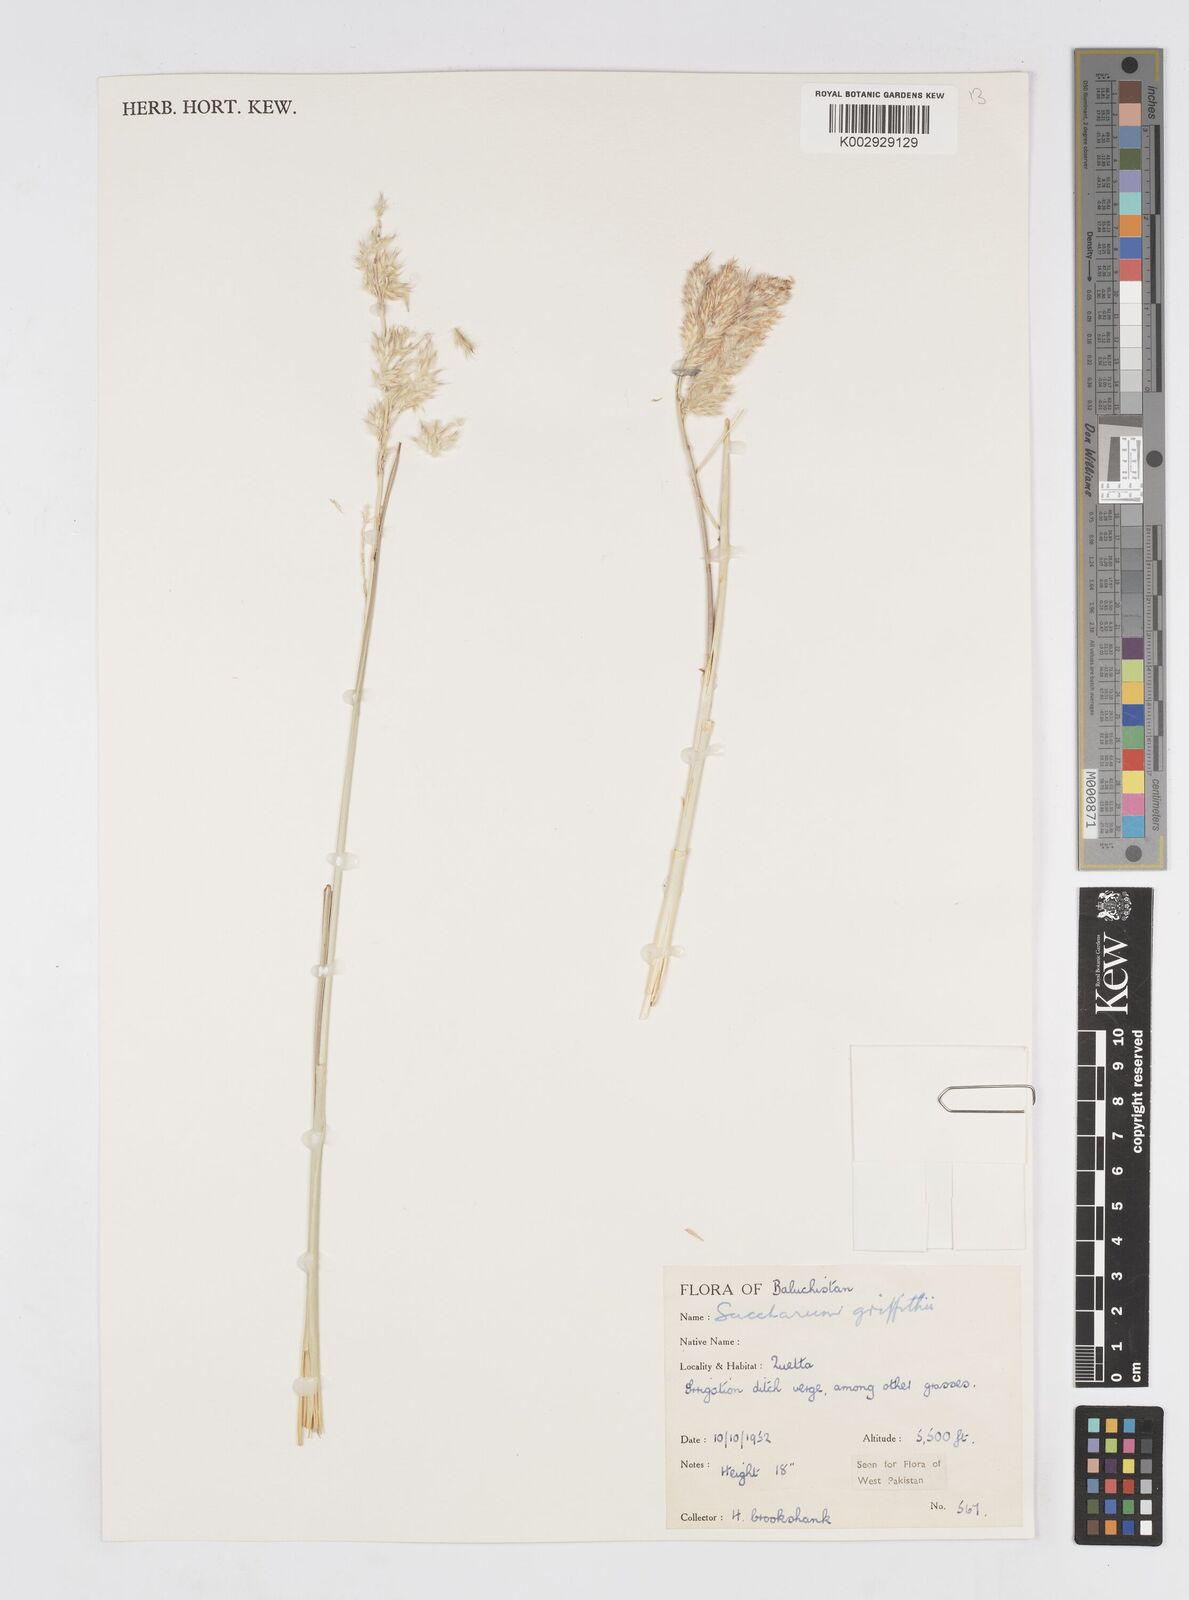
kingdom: Plantae
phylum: Tracheophyta
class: Liliopsida
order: Poales
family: Poaceae
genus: Saccharum
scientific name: Saccharum griffithii
